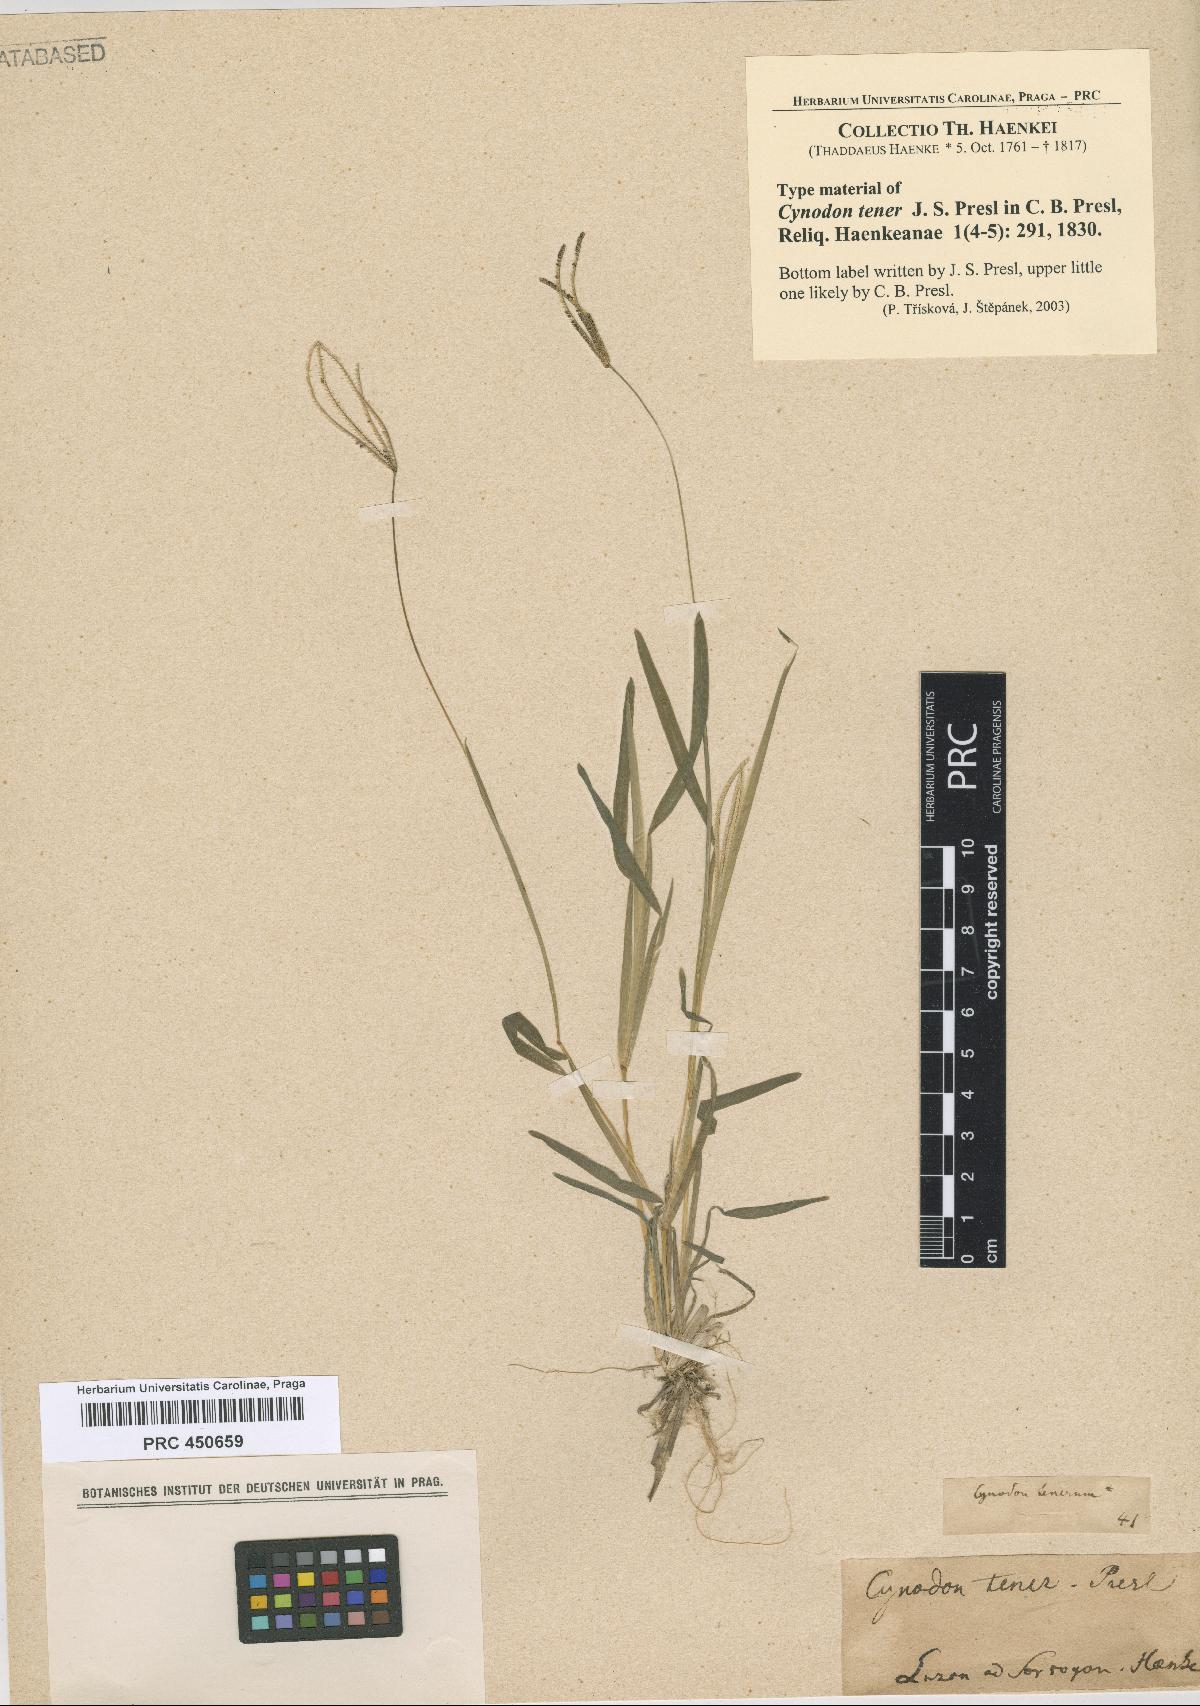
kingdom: Plantae
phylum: Tracheophyta
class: Liliopsida
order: Poales
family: Poaceae
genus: Eustachys
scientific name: Eustachys tenera
